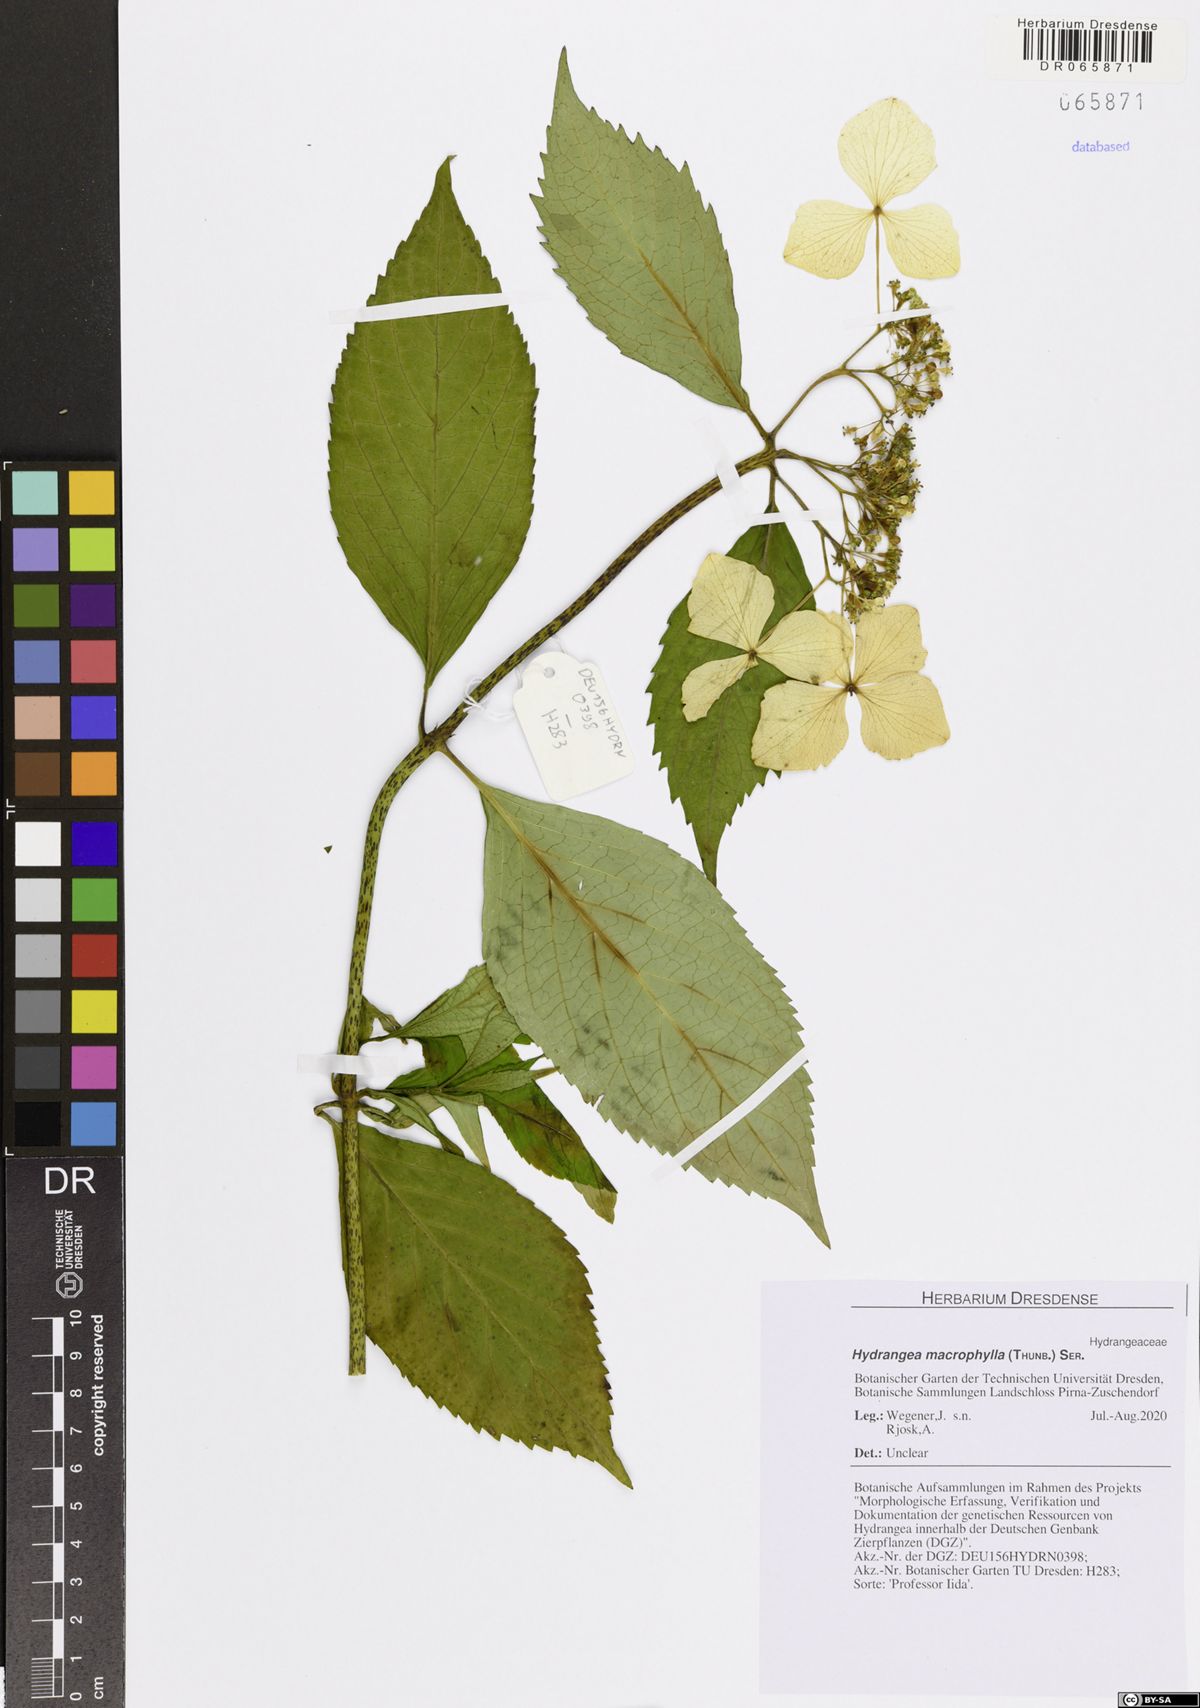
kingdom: Plantae
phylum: Tracheophyta
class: Magnoliopsida
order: Cornales
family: Hydrangeaceae
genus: Hydrangea
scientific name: Hydrangea macrophylla
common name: Hydrangea
